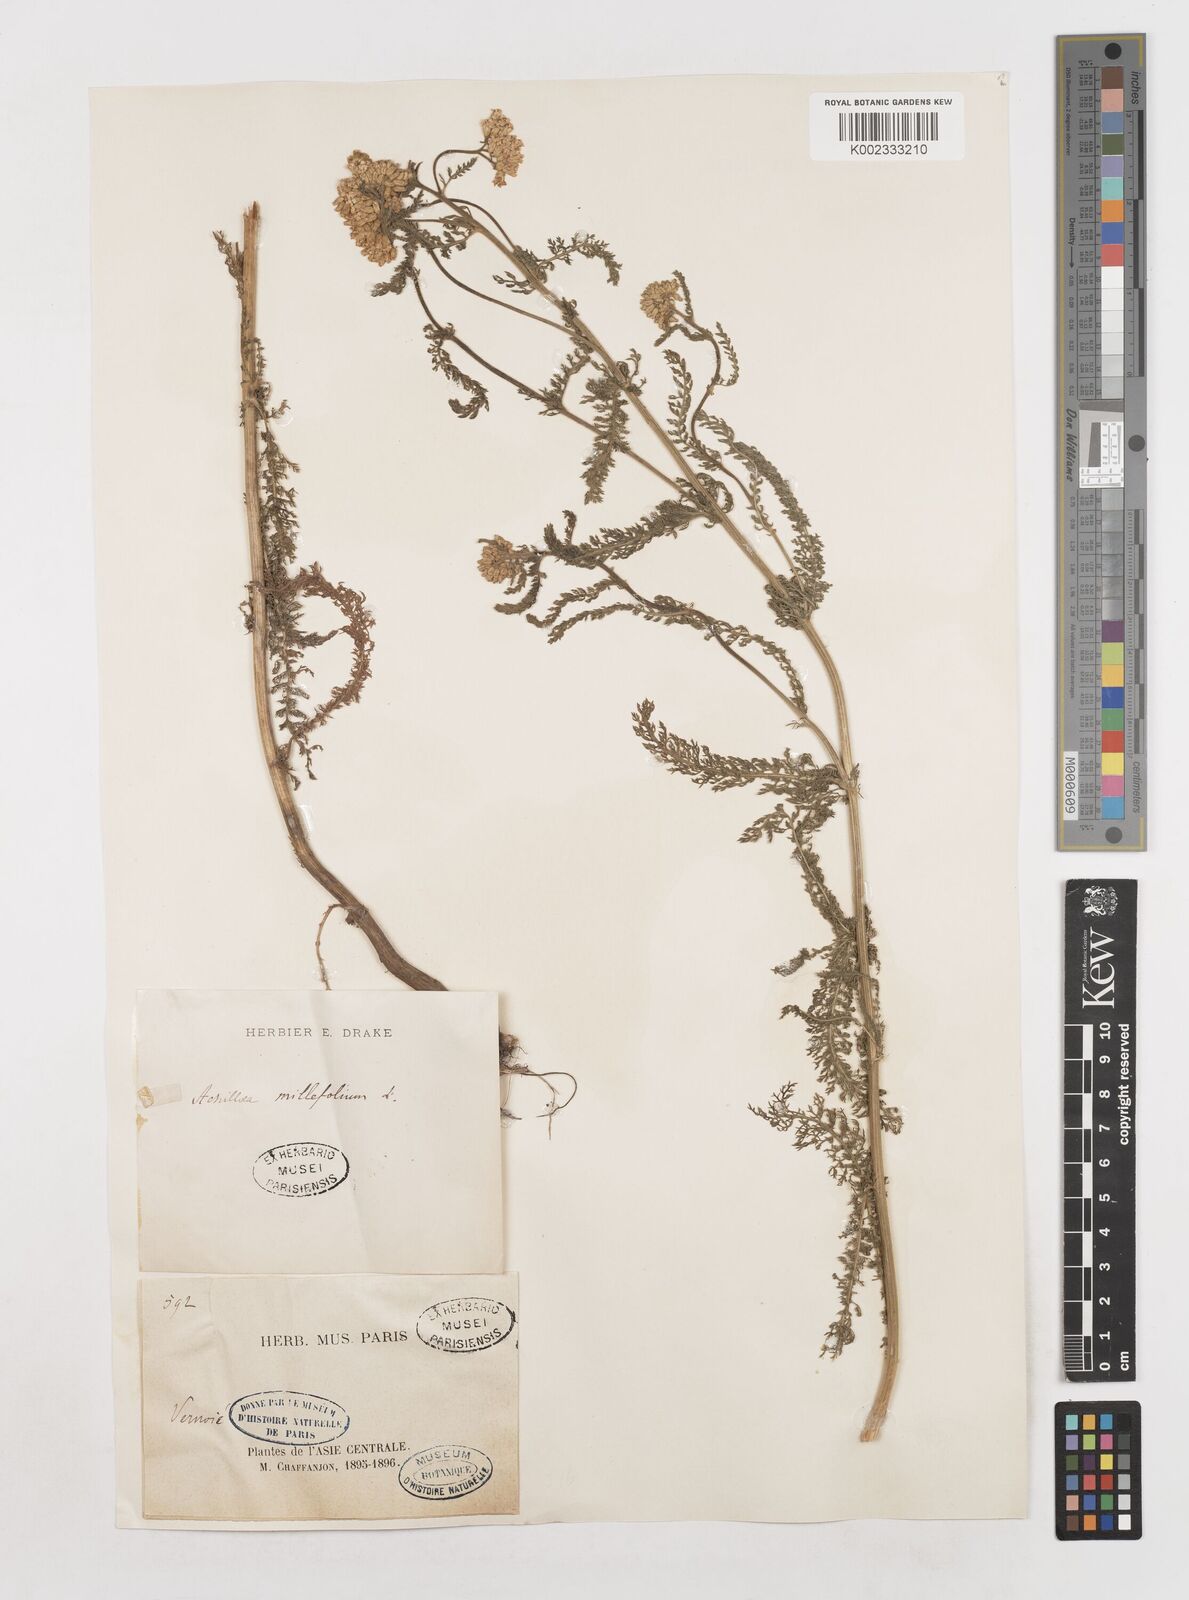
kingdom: Plantae
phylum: Tracheophyta
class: Magnoliopsida
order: Asterales
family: Asteraceae
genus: Achillea
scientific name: Achillea millefolium
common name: Yarrow
